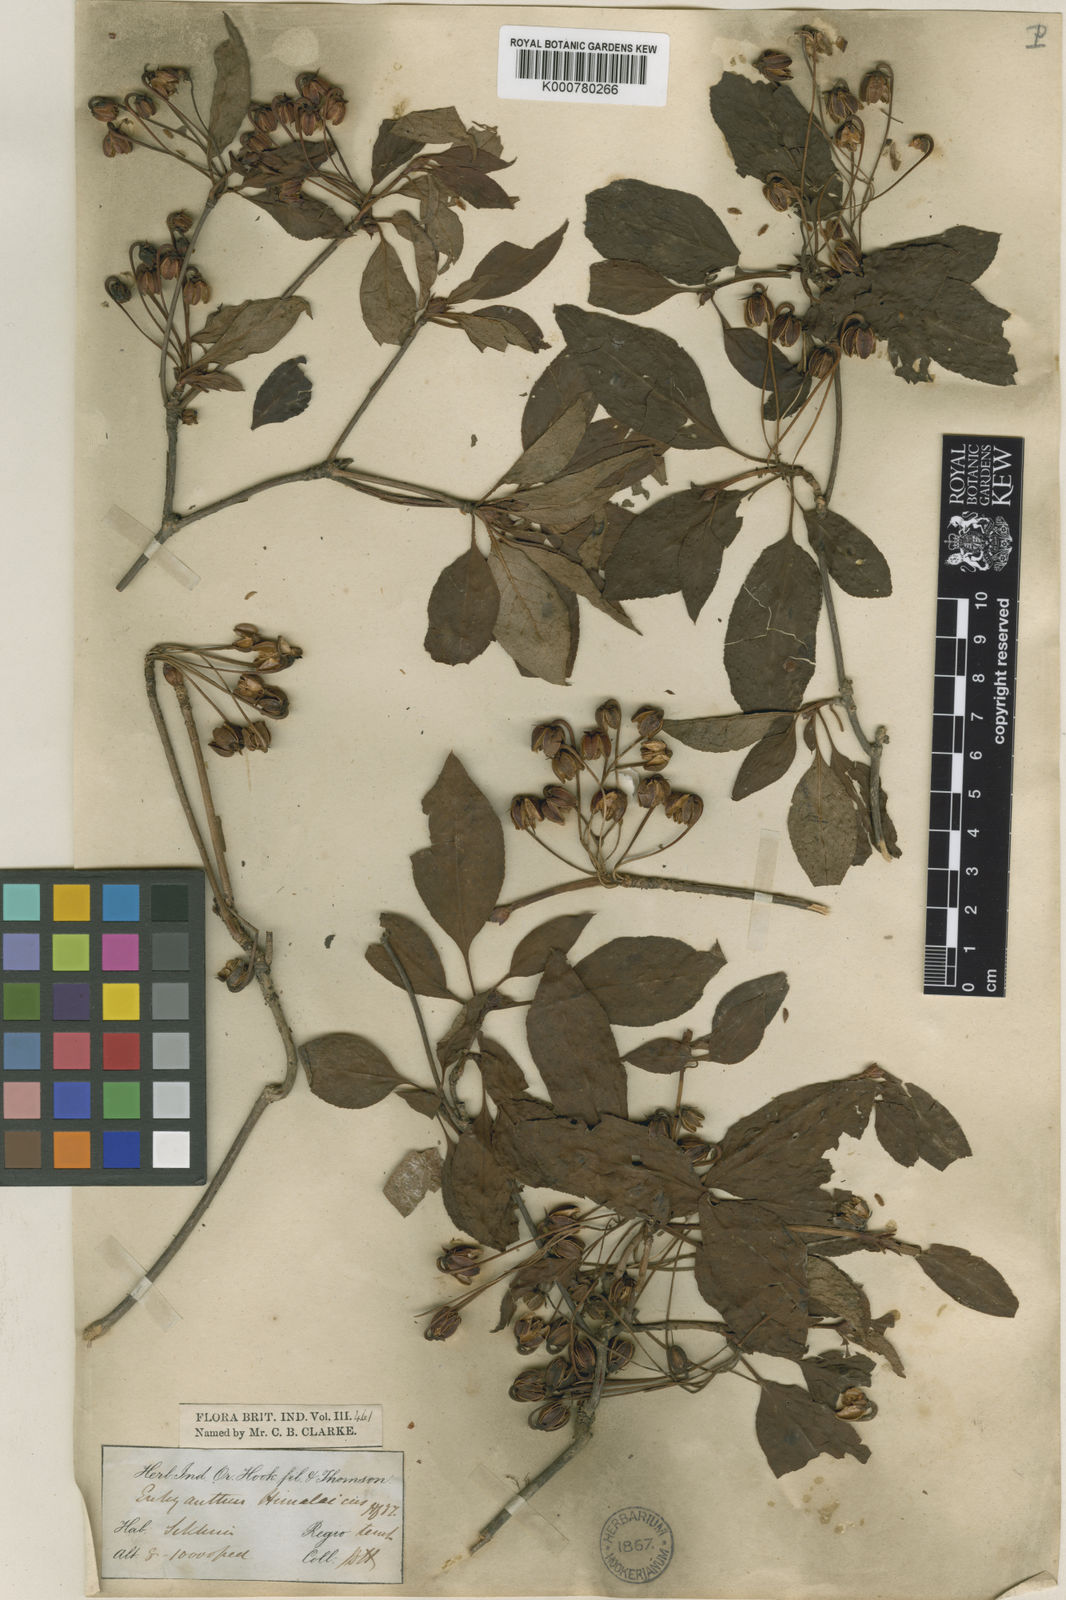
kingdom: Plantae
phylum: Tracheophyta
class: Magnoliopsida
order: Ericales
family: Ericaceae
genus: Enkianthus
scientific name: Enkianthus deflexus
